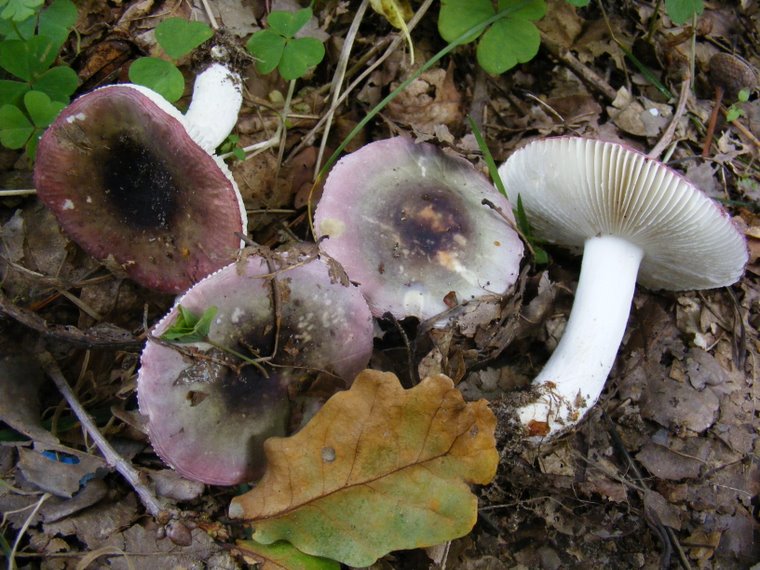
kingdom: Fungi
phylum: Basidiomycota
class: Agaricomycetes
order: Russulales
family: Russulaceae
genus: Russula
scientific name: Russula atropurpurea
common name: purpurbroget skørhat
